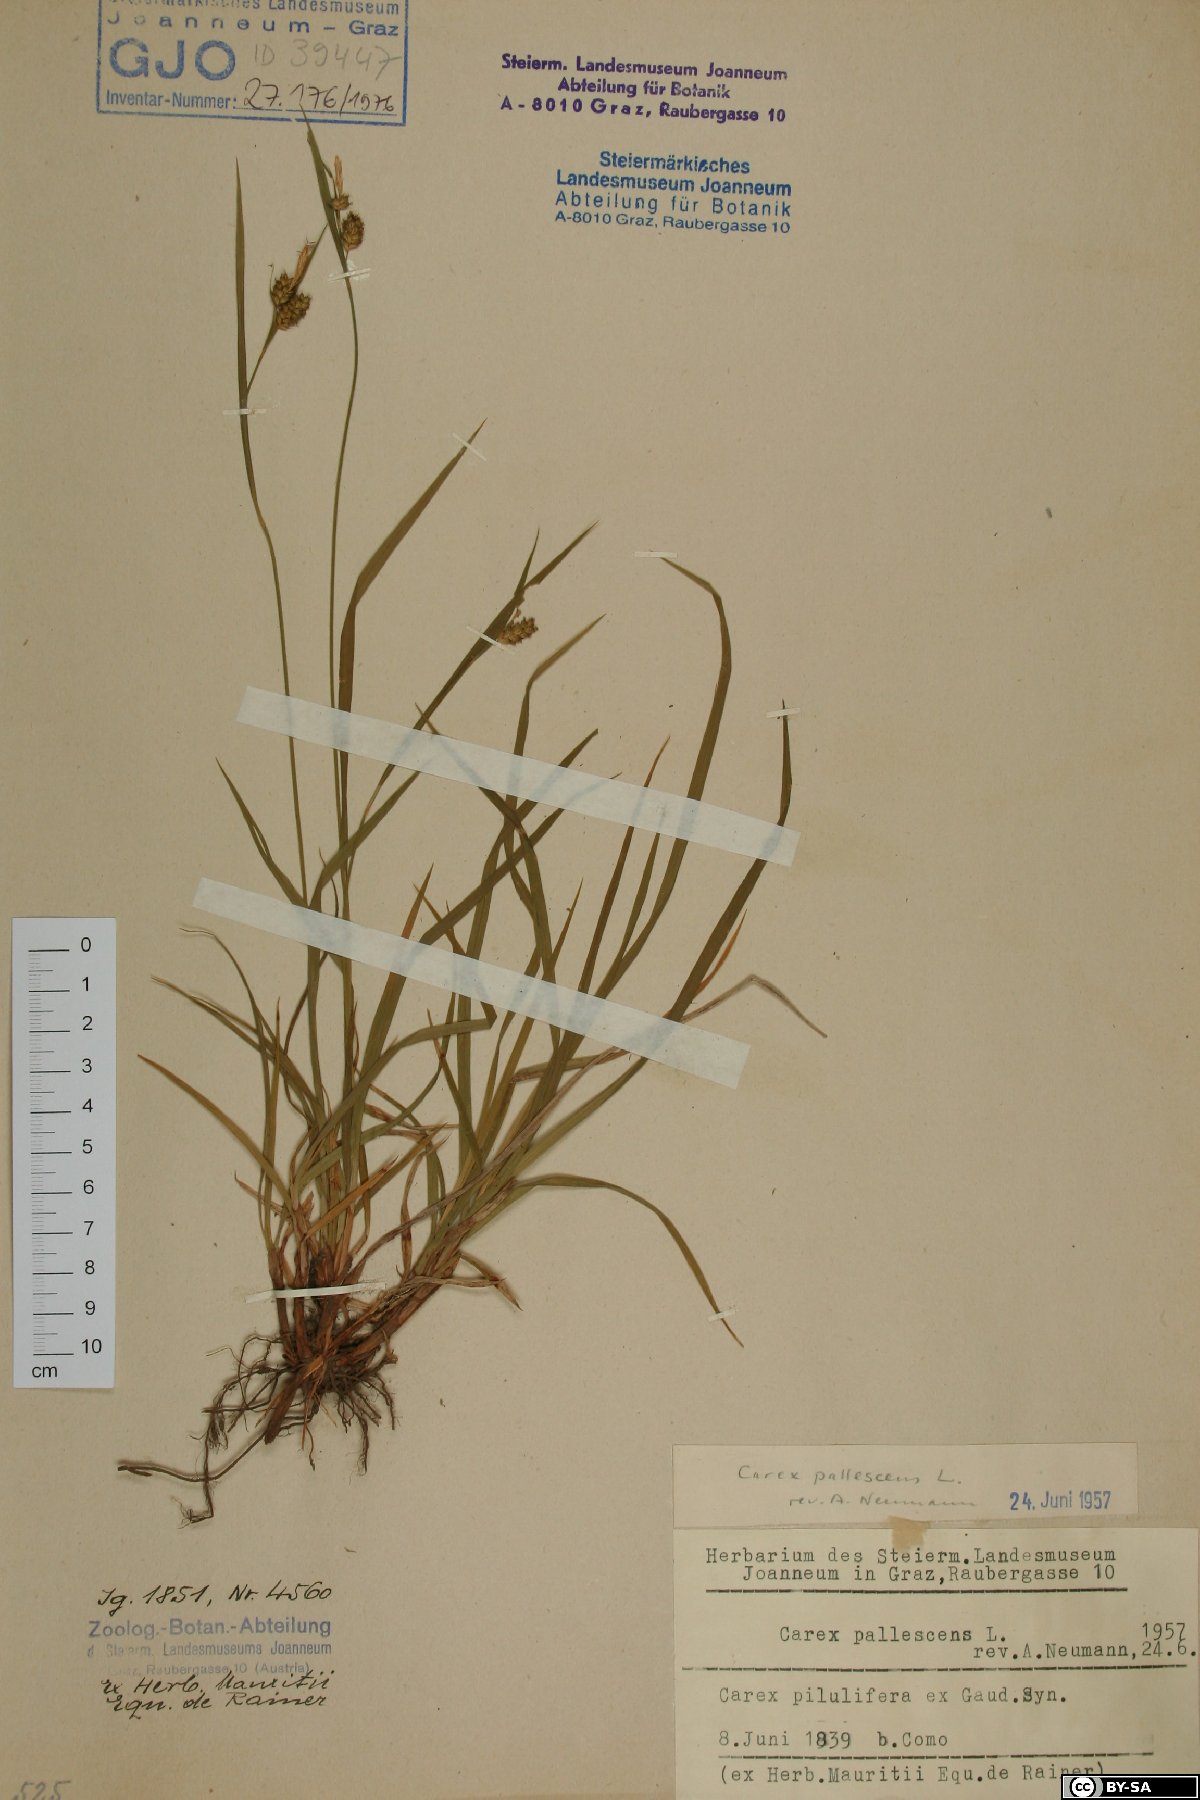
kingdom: Plantae
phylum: Tracheophyta
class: Liliopsida
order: Poales
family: Cyperaceae
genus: Carex
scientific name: Carex pallescens
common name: Pale sedge
